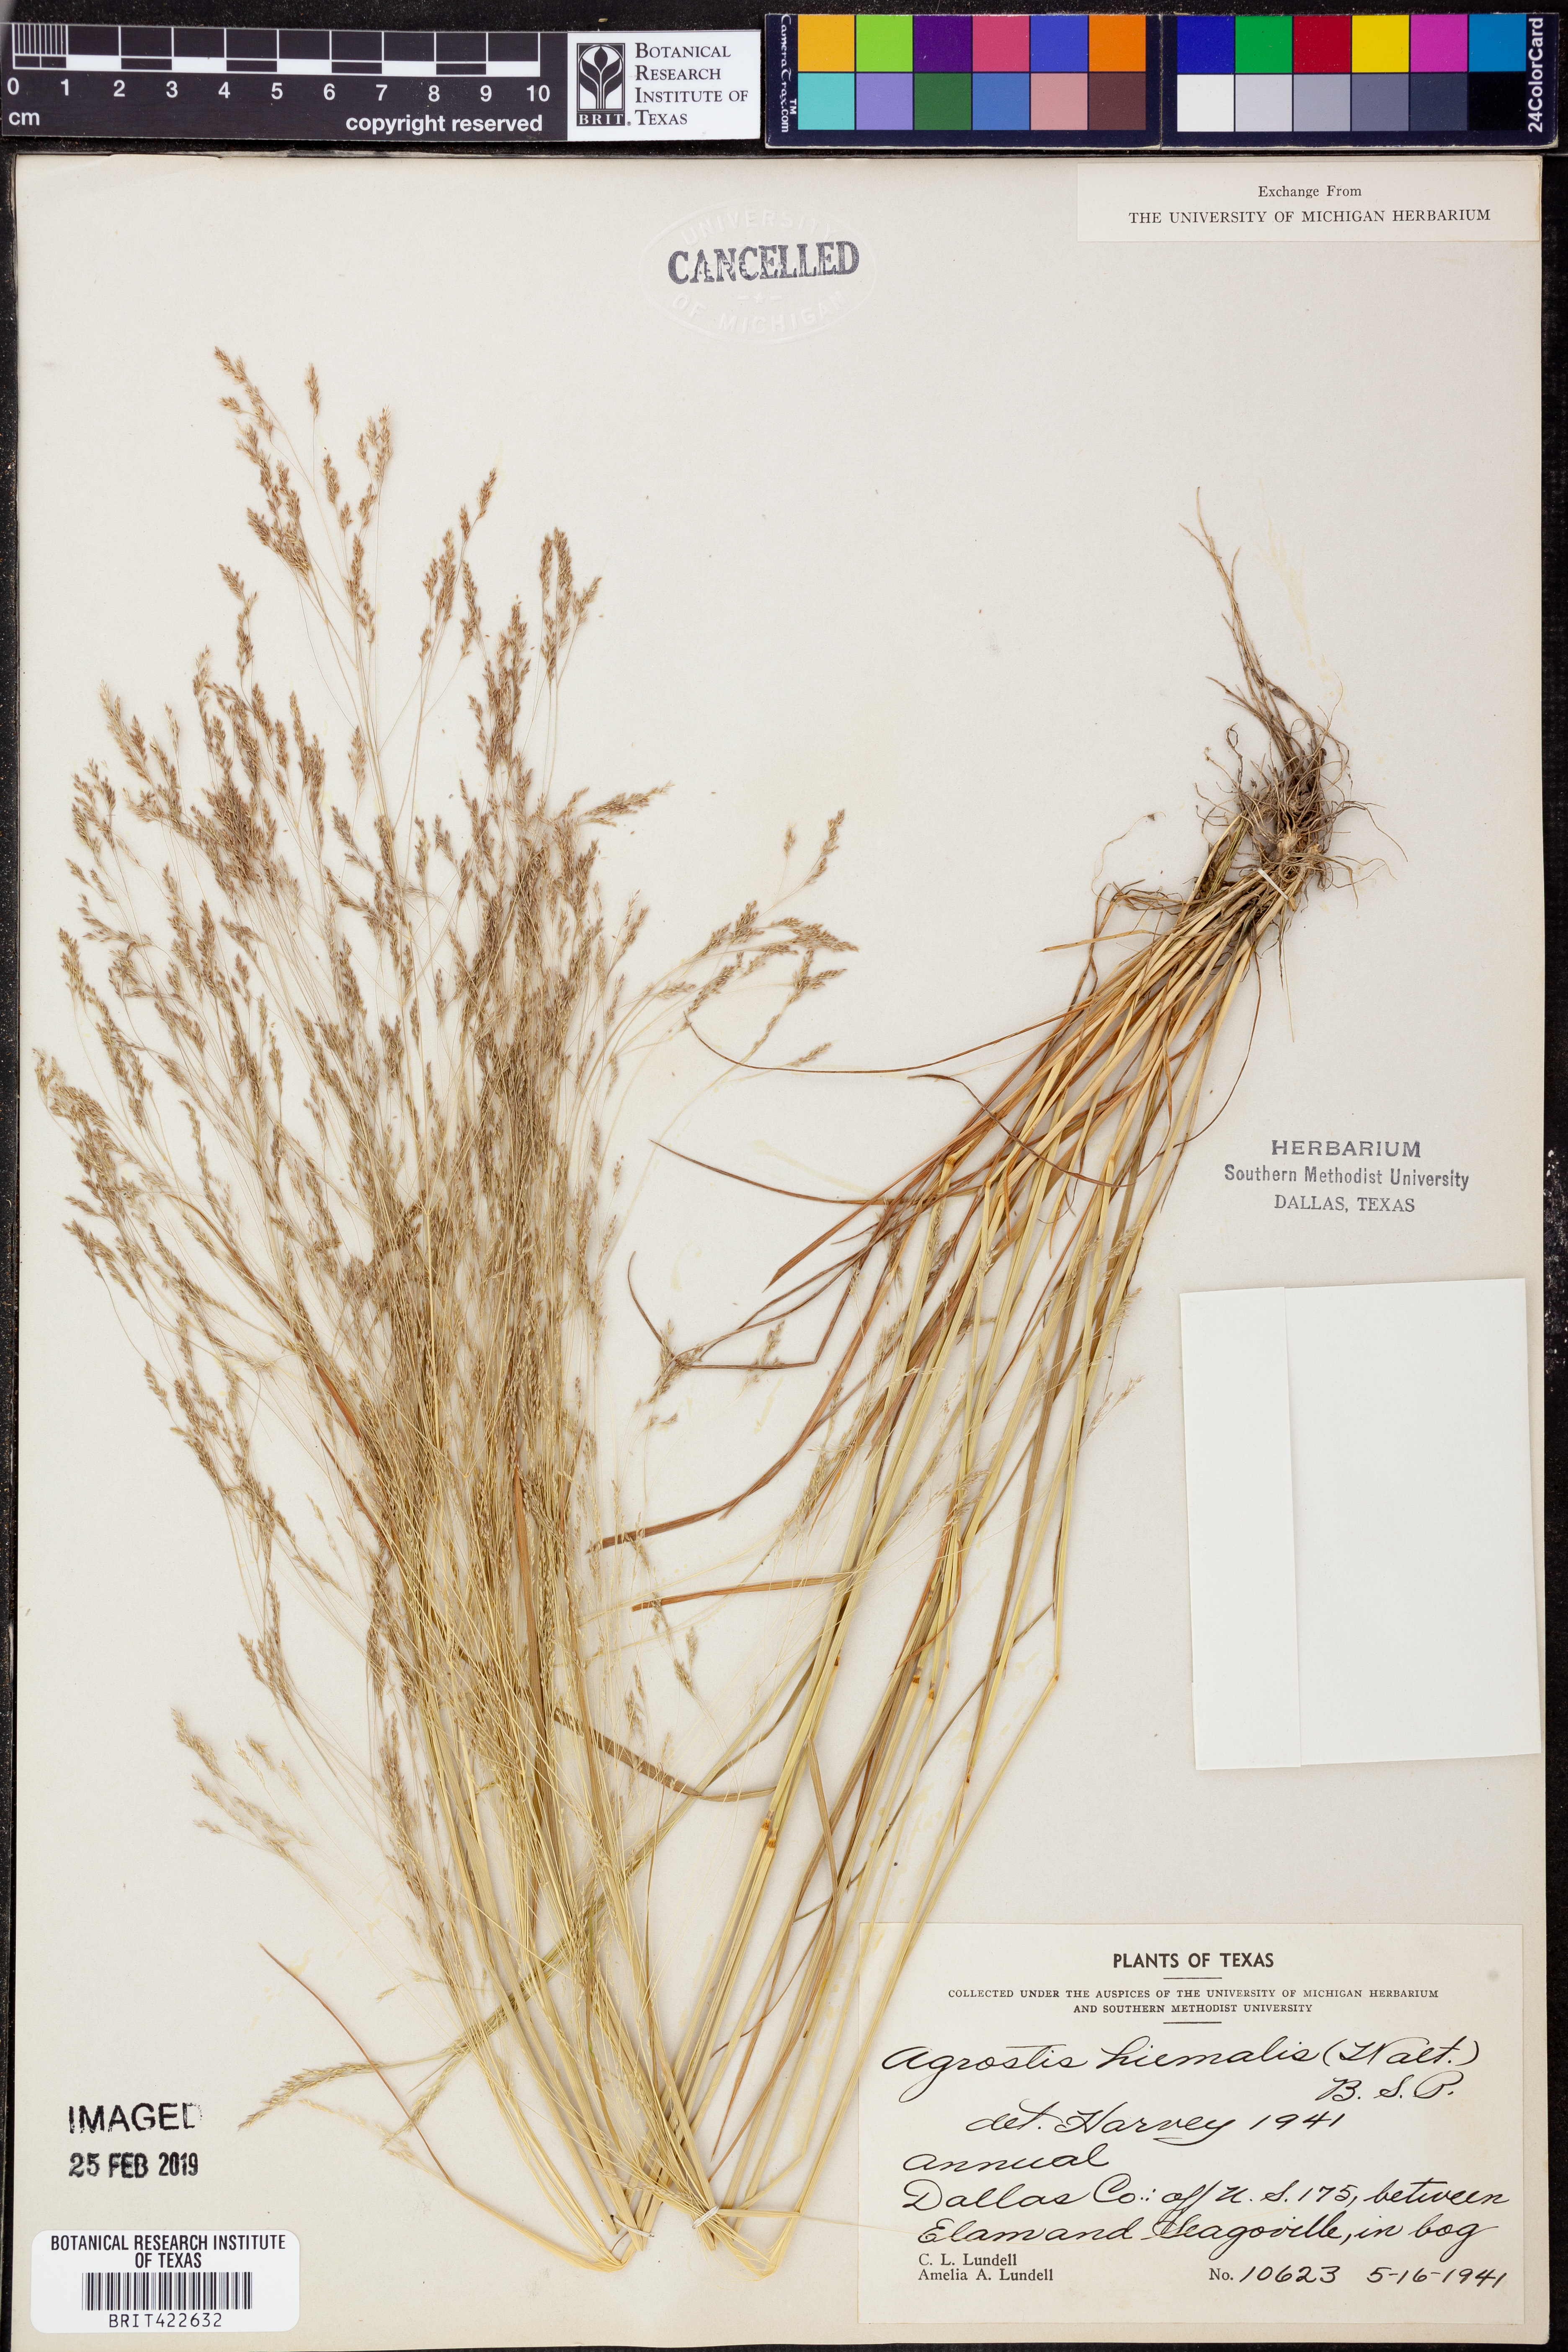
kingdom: Plantae
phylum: Tracheophyta
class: Liliopsida
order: Poales
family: Poaceae
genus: Agrostis
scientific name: Agrostis hyemalis
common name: Small bent
